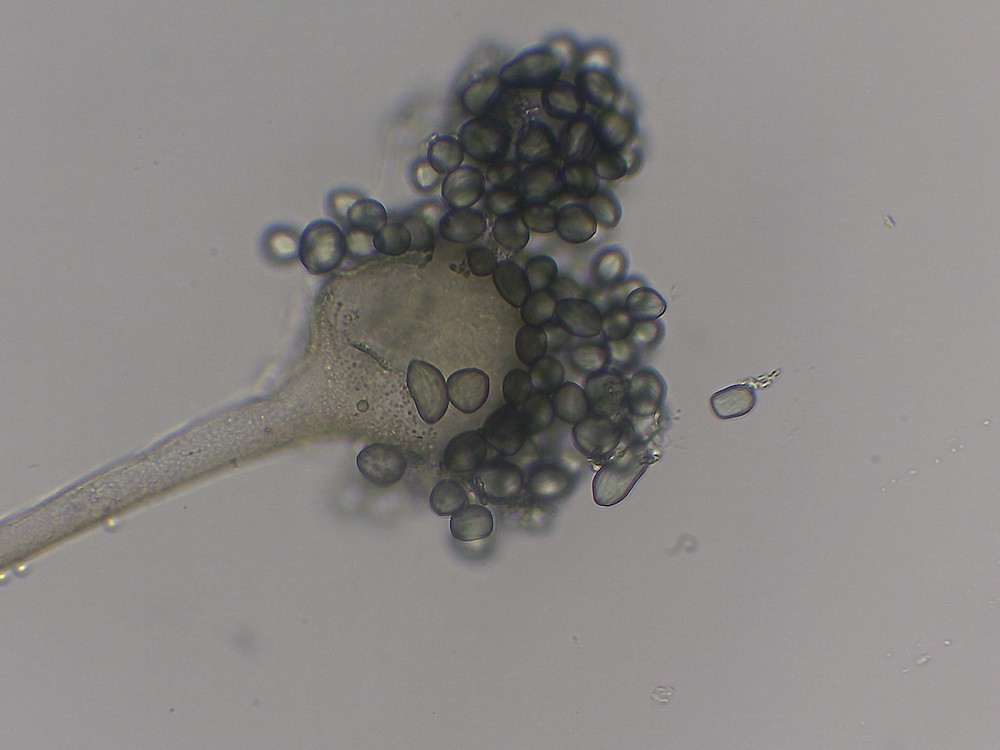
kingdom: Fungi
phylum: Mucoromycota
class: Mucoromycetes
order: Mucorales
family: Rhizopodaceae
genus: Rhizopus
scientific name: Rhizopus
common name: løbenål
